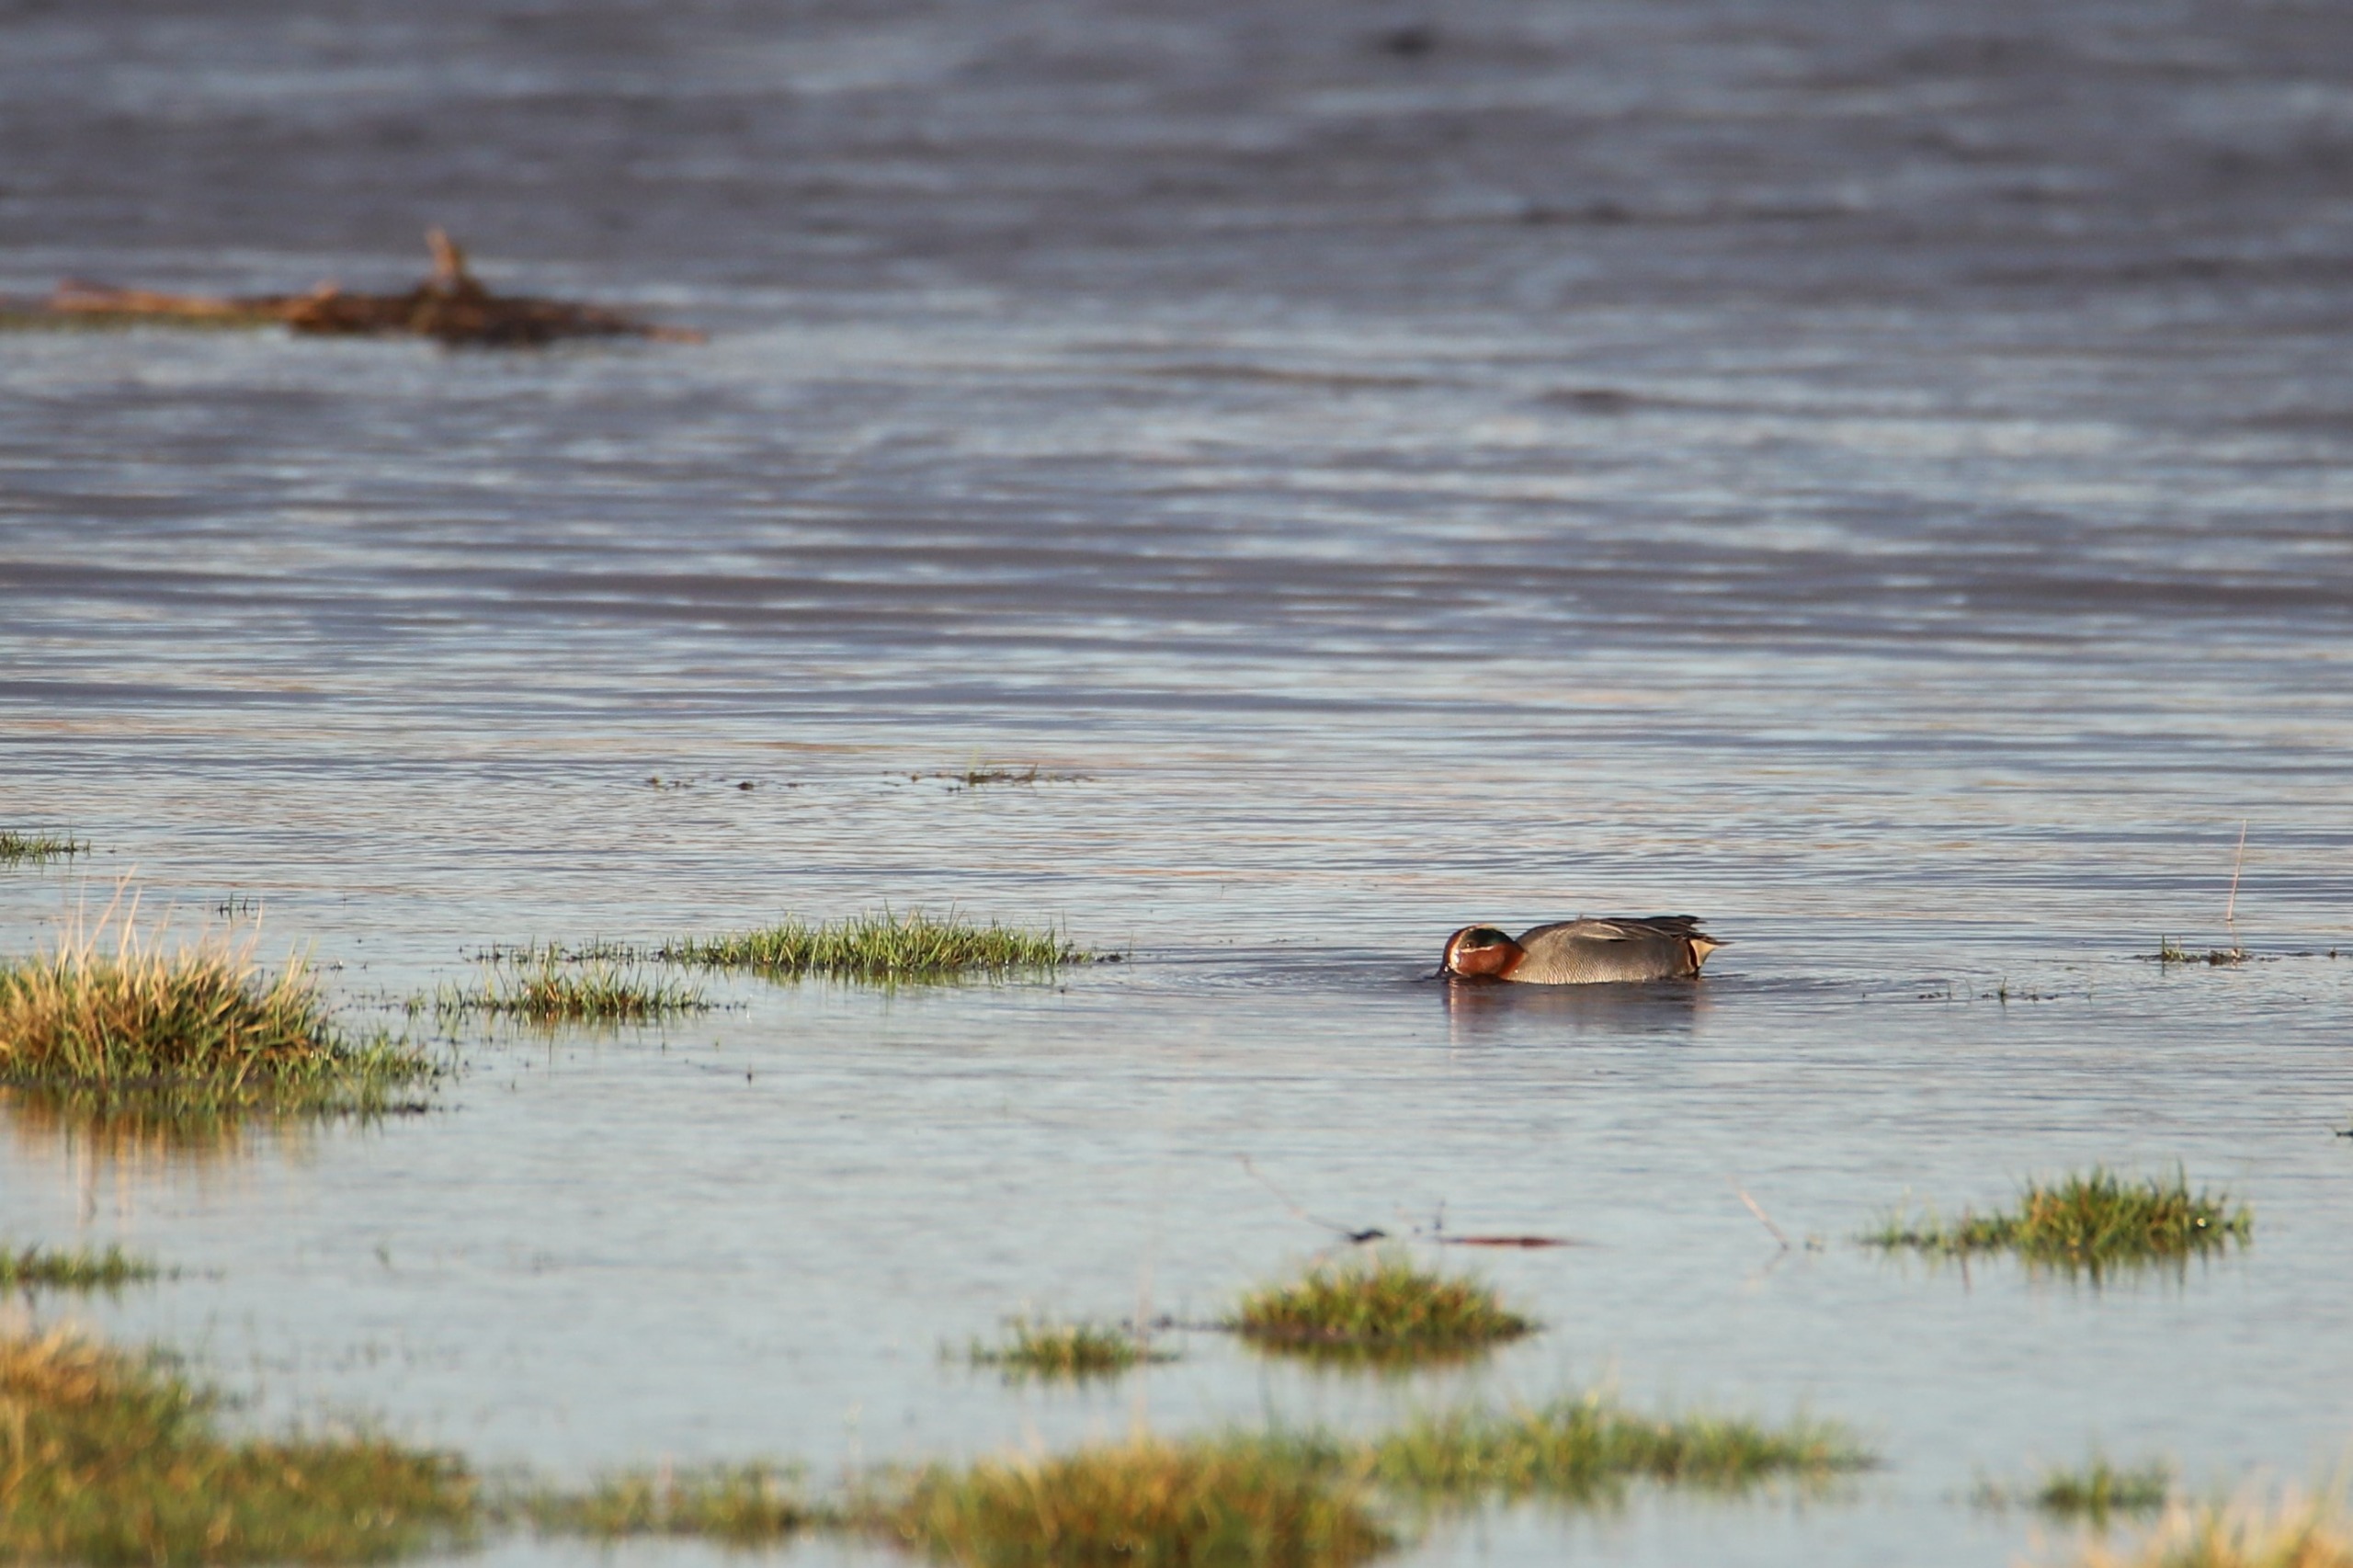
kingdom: Animalia
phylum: Chordata
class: Aves
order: Anseriformes
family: Anatidae
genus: Anas
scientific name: Anas crecca
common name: Krikand
